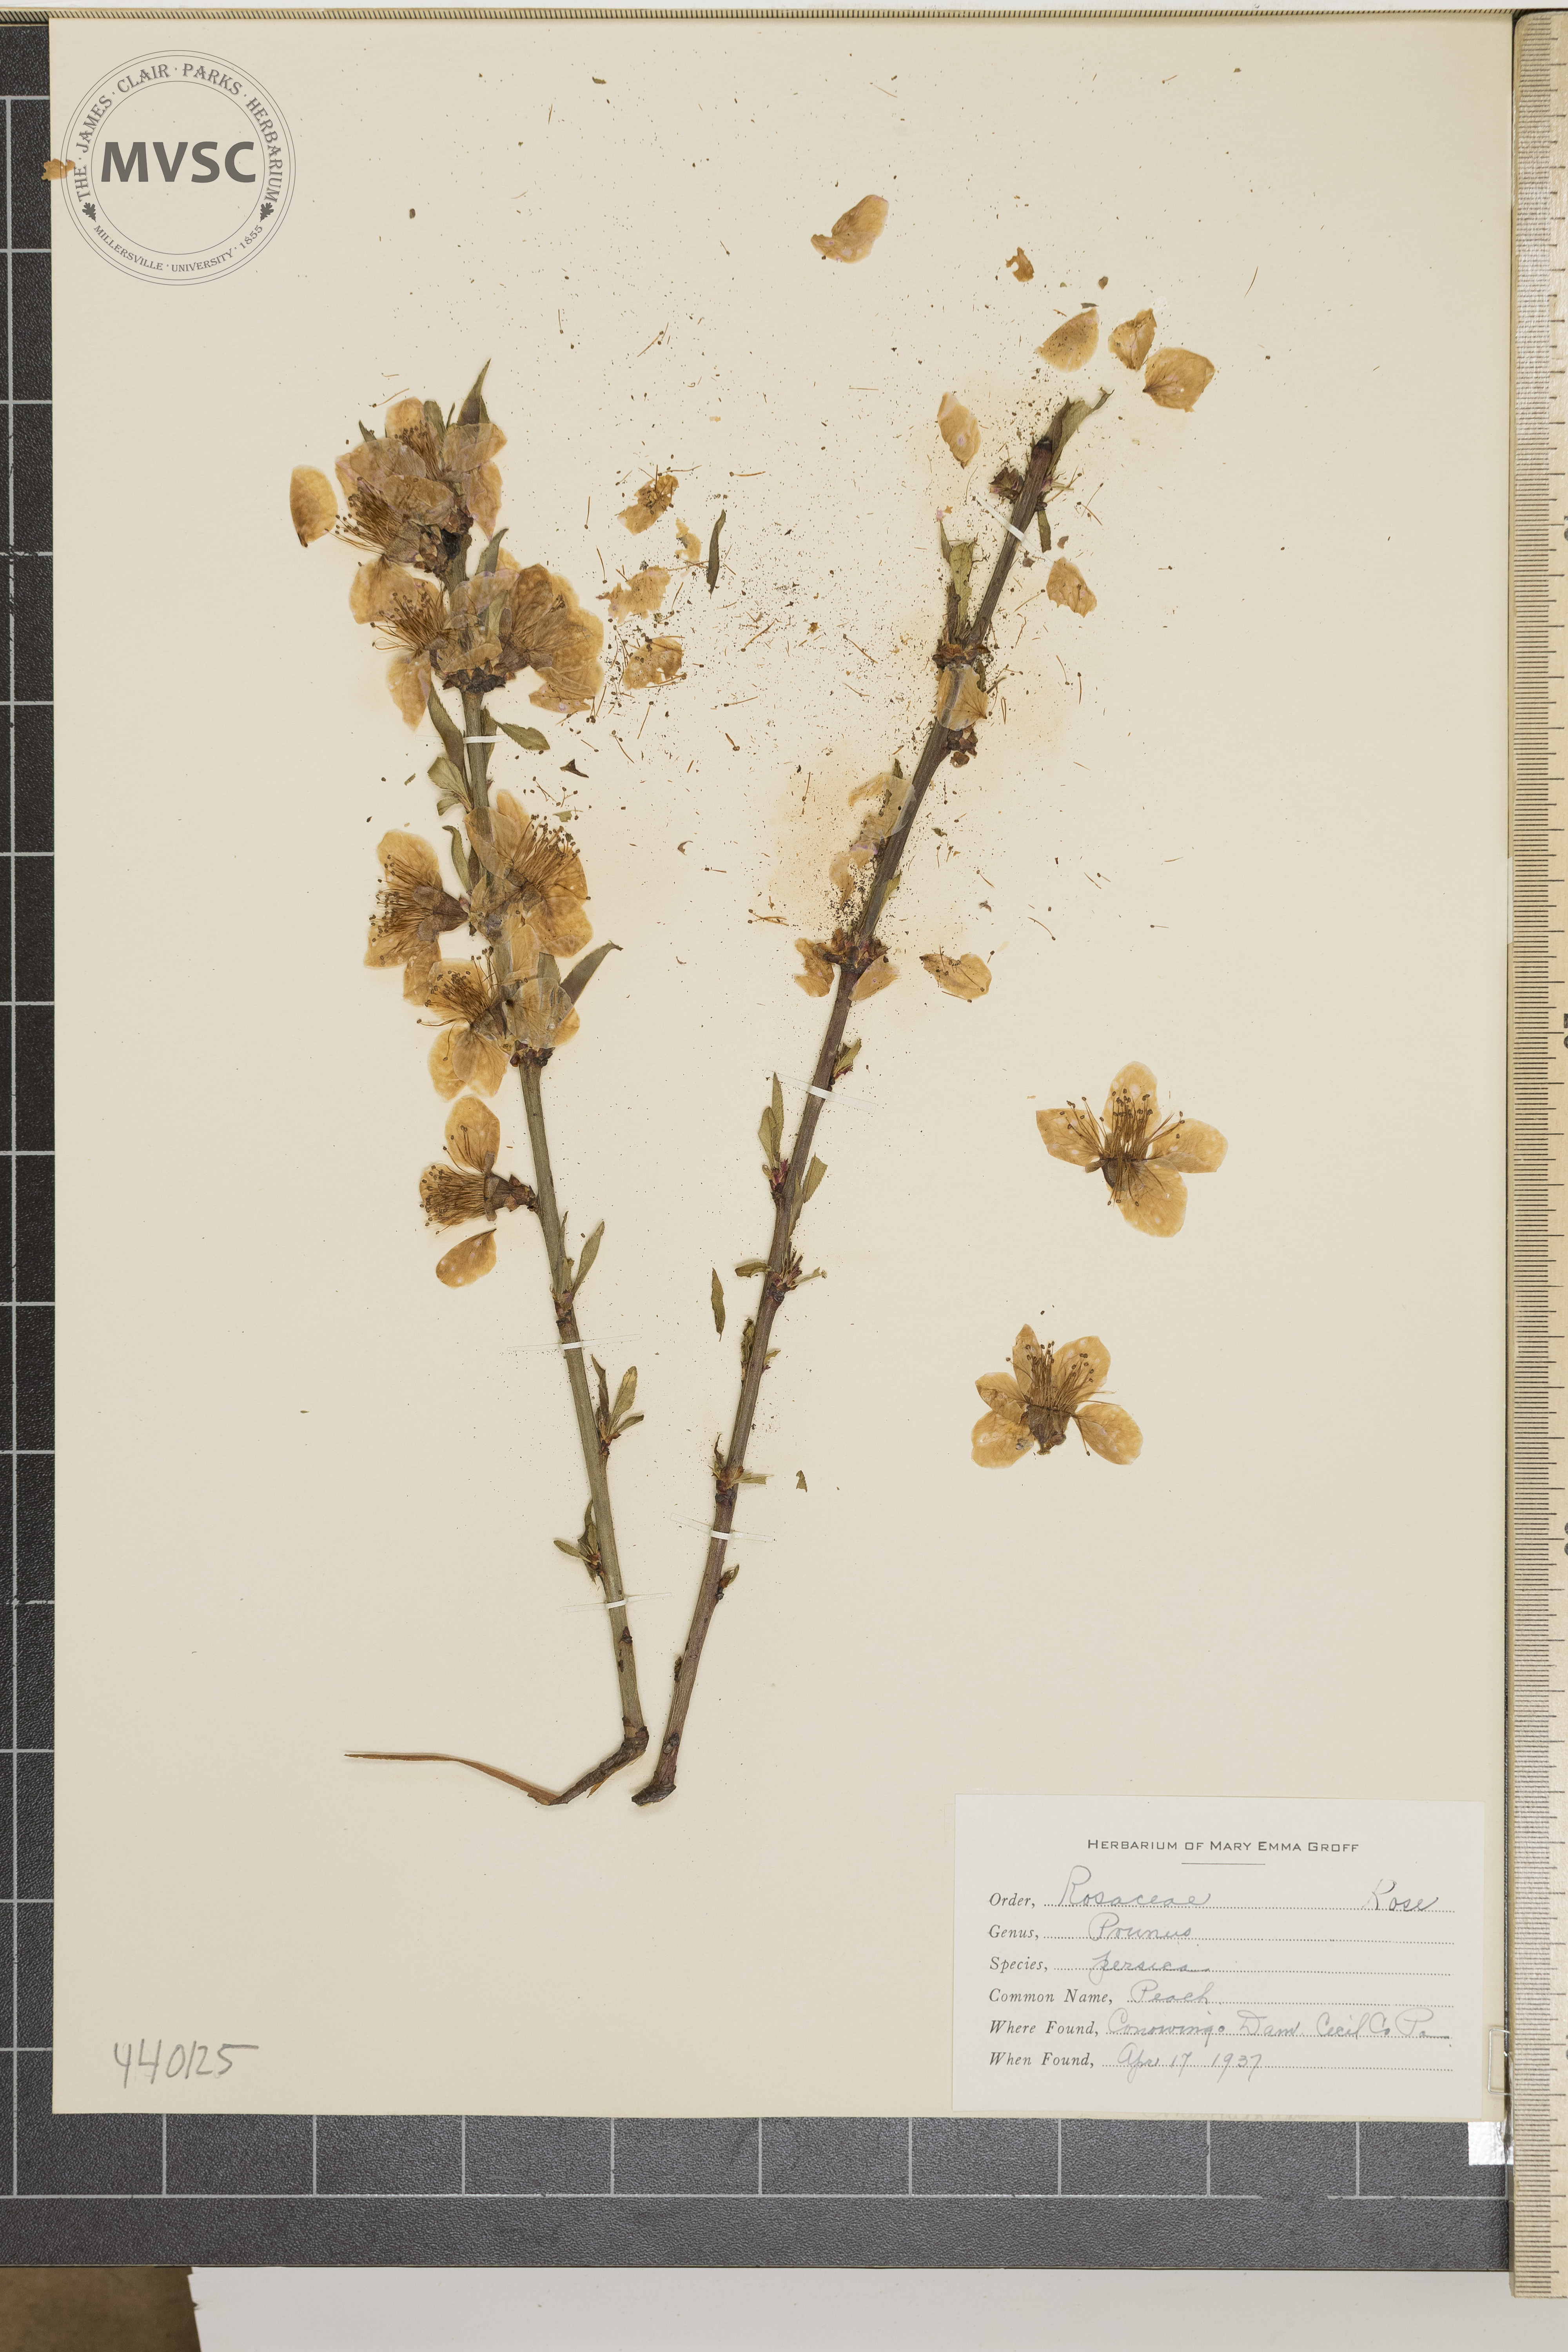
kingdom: Plantae
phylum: Tracheophyta
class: Magnoliopsida
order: Rosales
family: Rosaceae
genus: Prunus
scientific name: Prunus persica
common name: Peach
